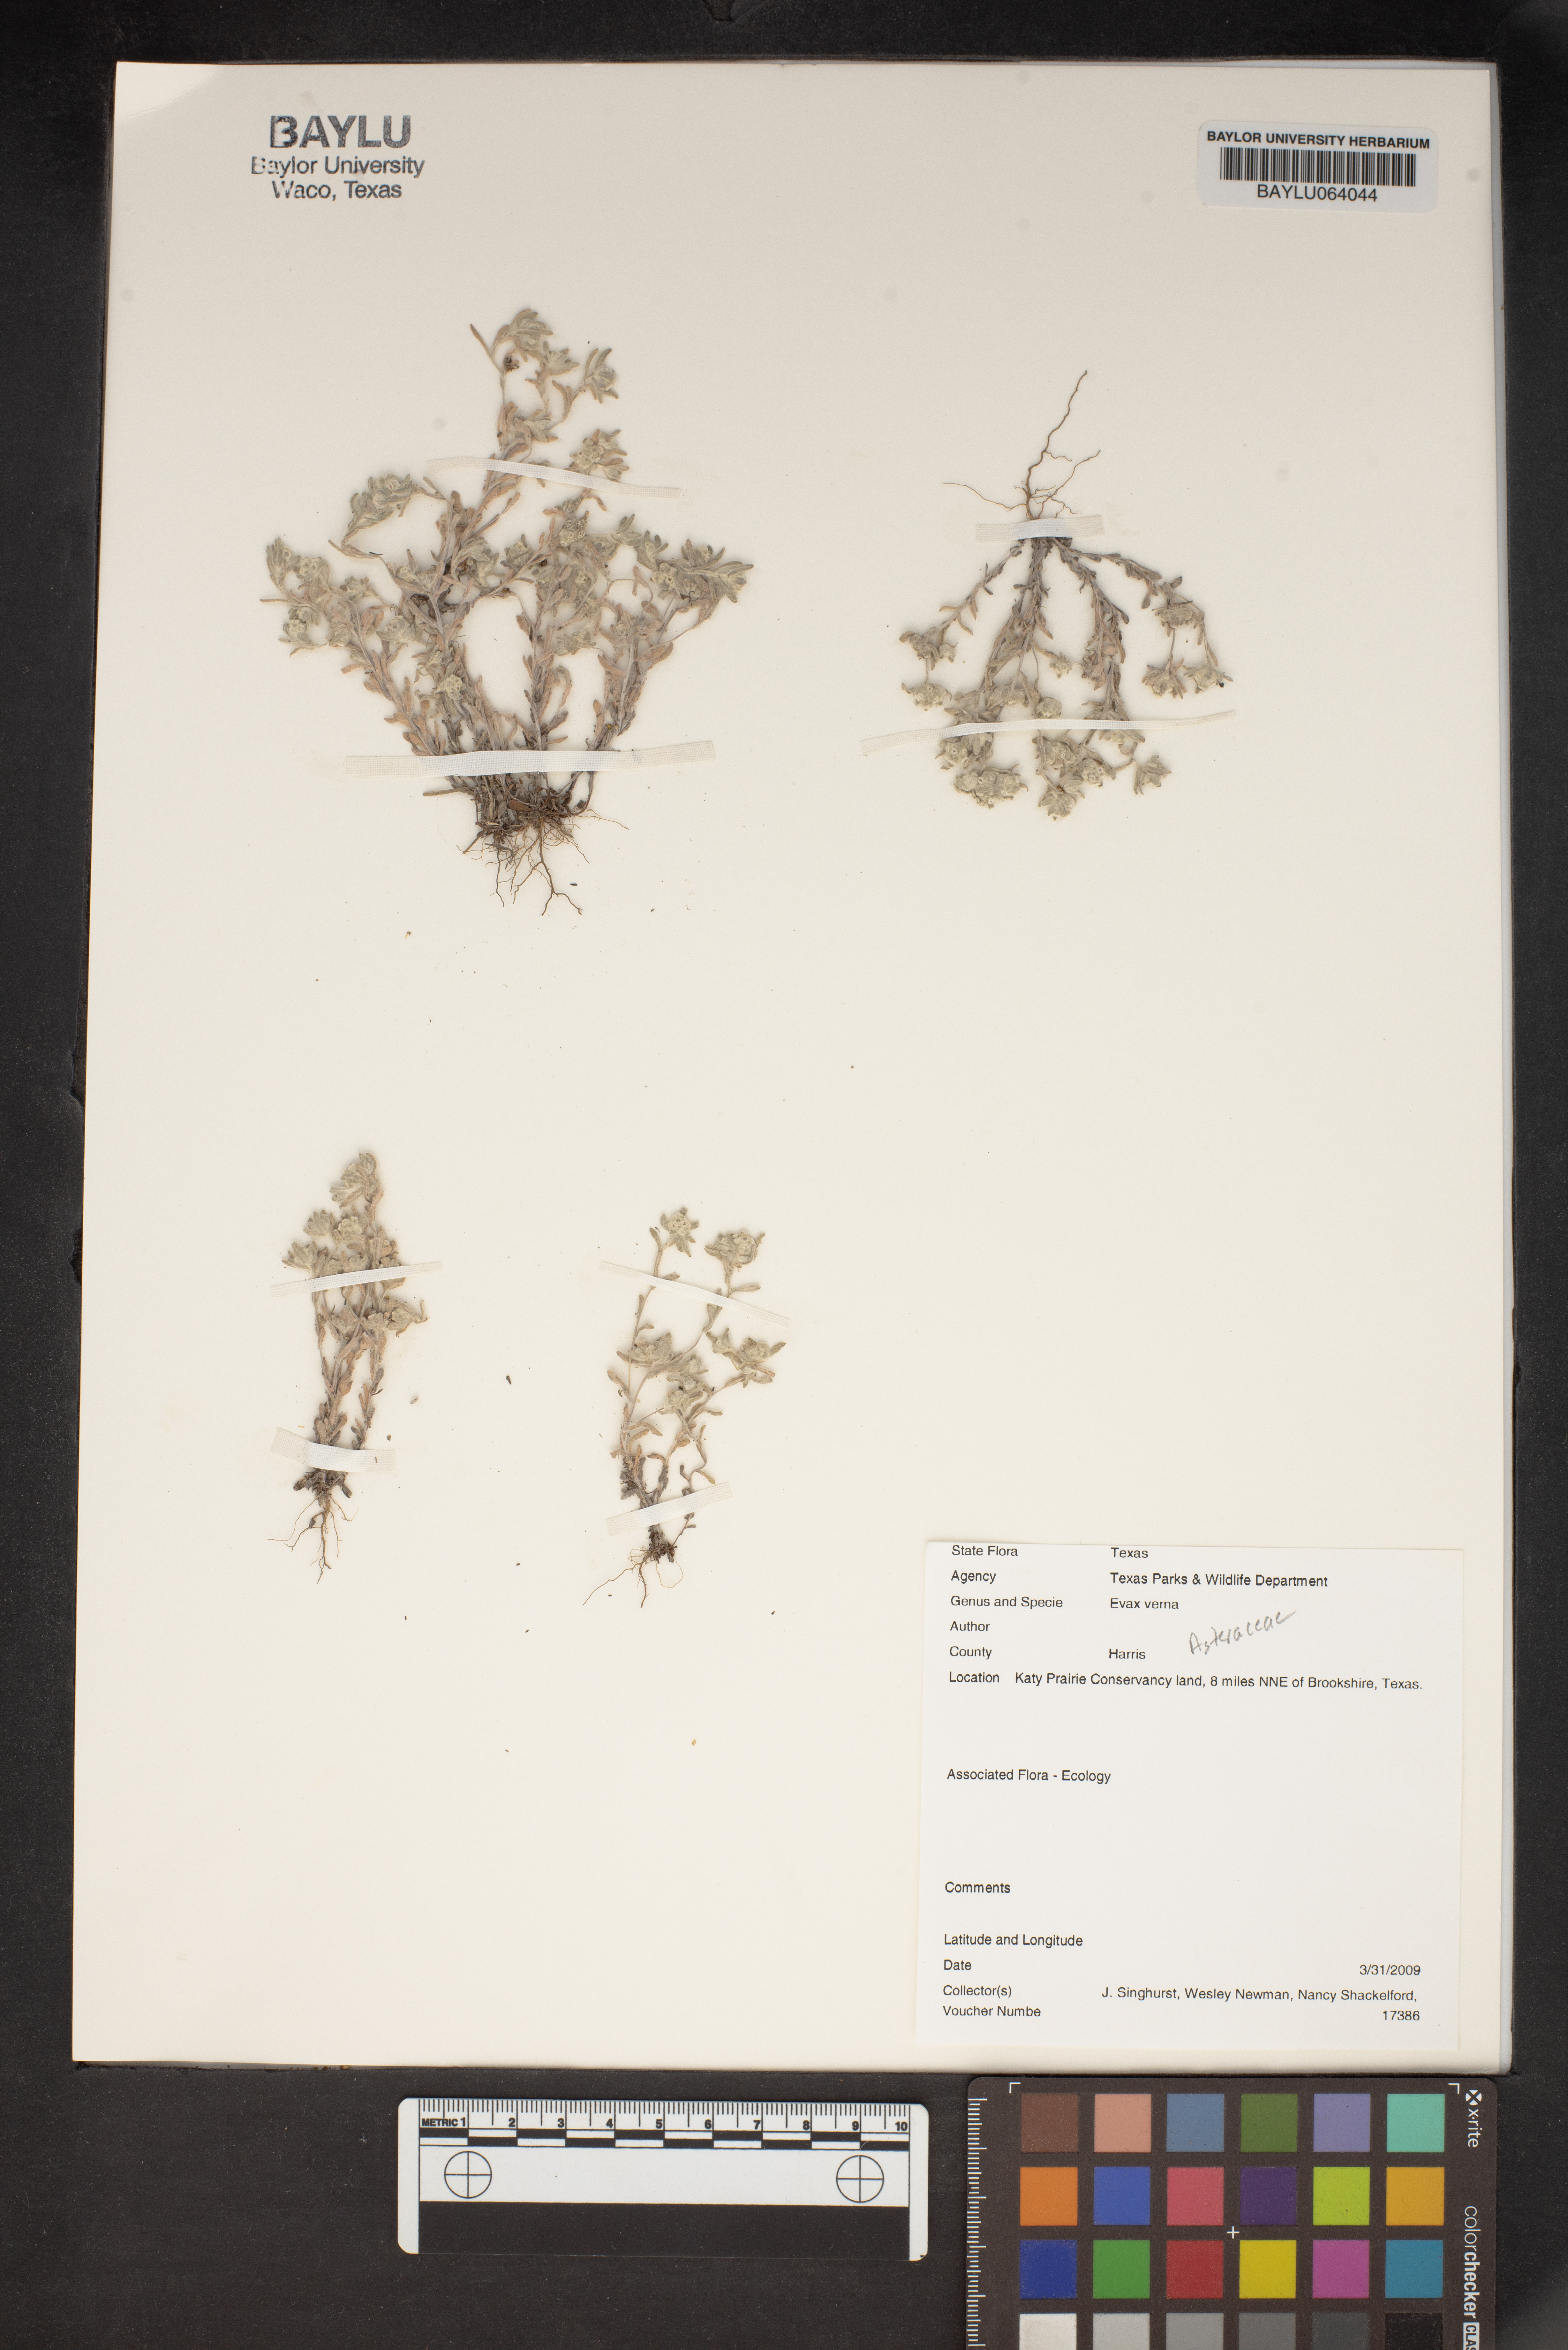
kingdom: Plantae
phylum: Tracheophyta
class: Magnoliopsida
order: Asterales
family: Asteraceae
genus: Diaperia
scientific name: Diaperia verna
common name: Many-stem rabbit-tobacco
